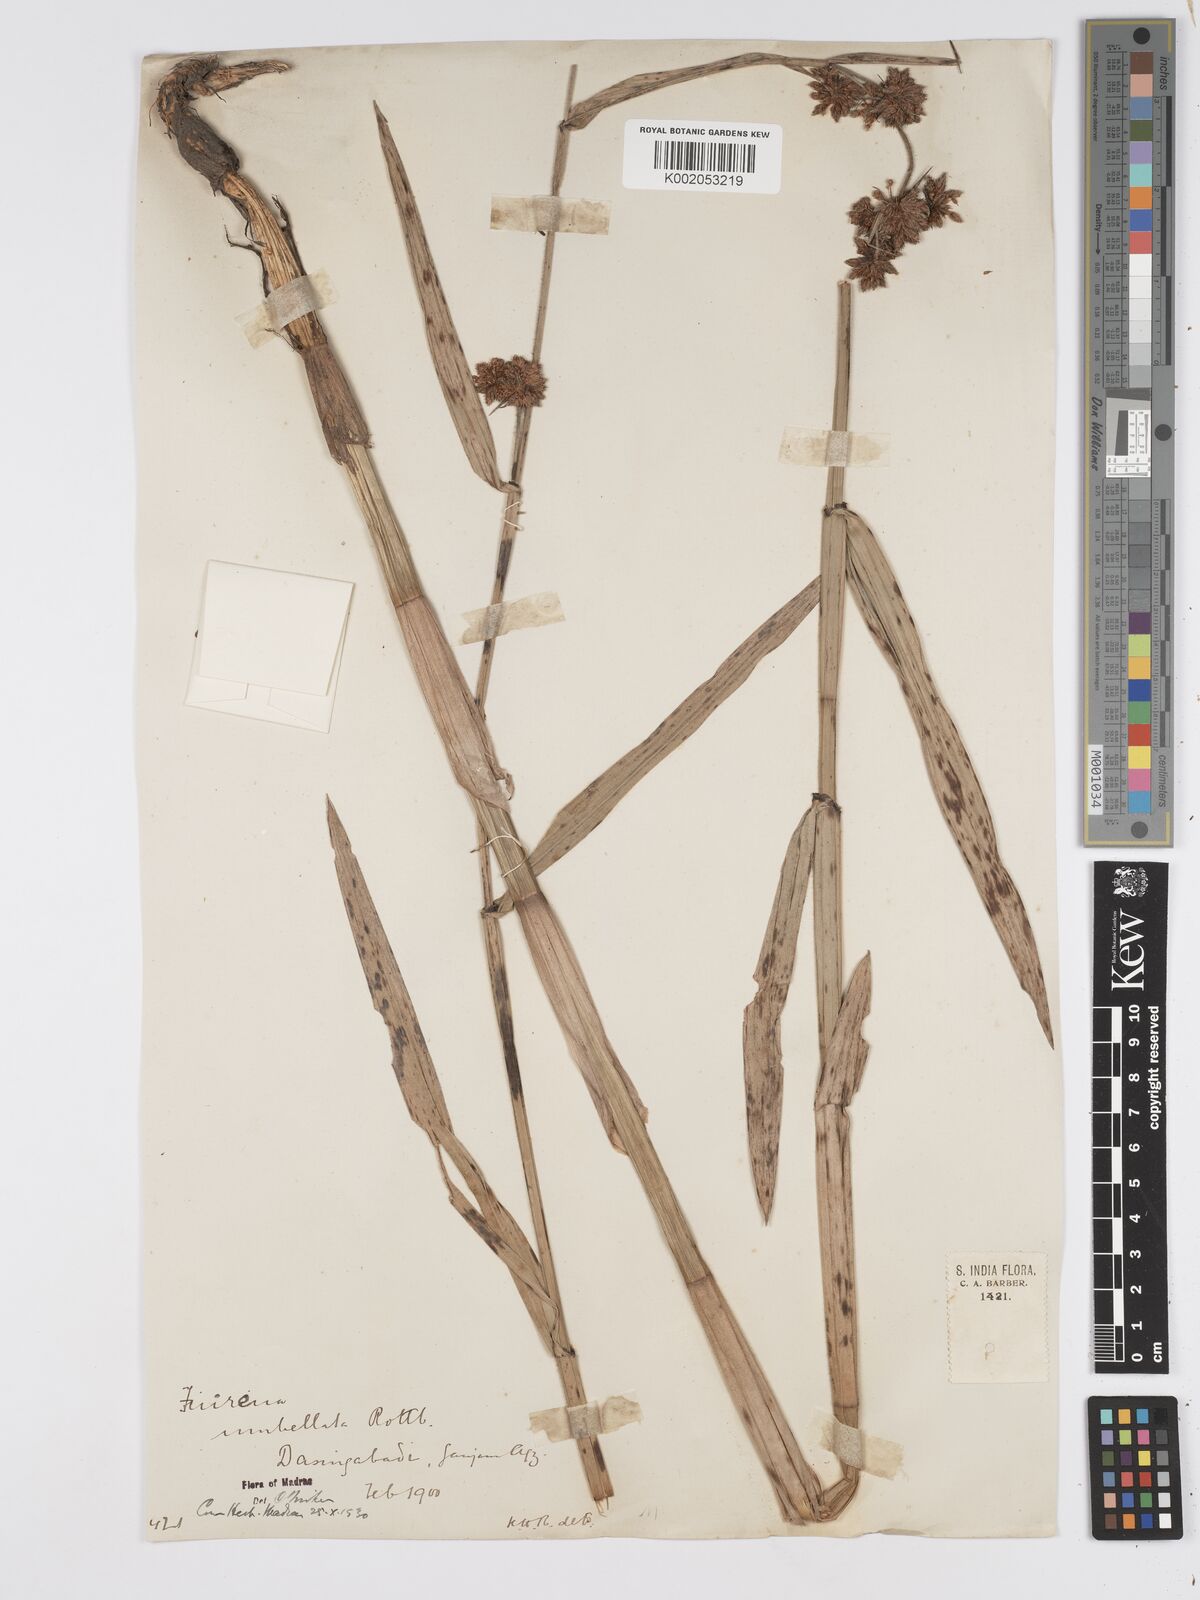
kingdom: Plantae
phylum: Tracheophyta
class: Liliopsida
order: Poales
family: Cyperaceae
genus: Fuirena
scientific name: Fuirena umbellata
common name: Yefen
